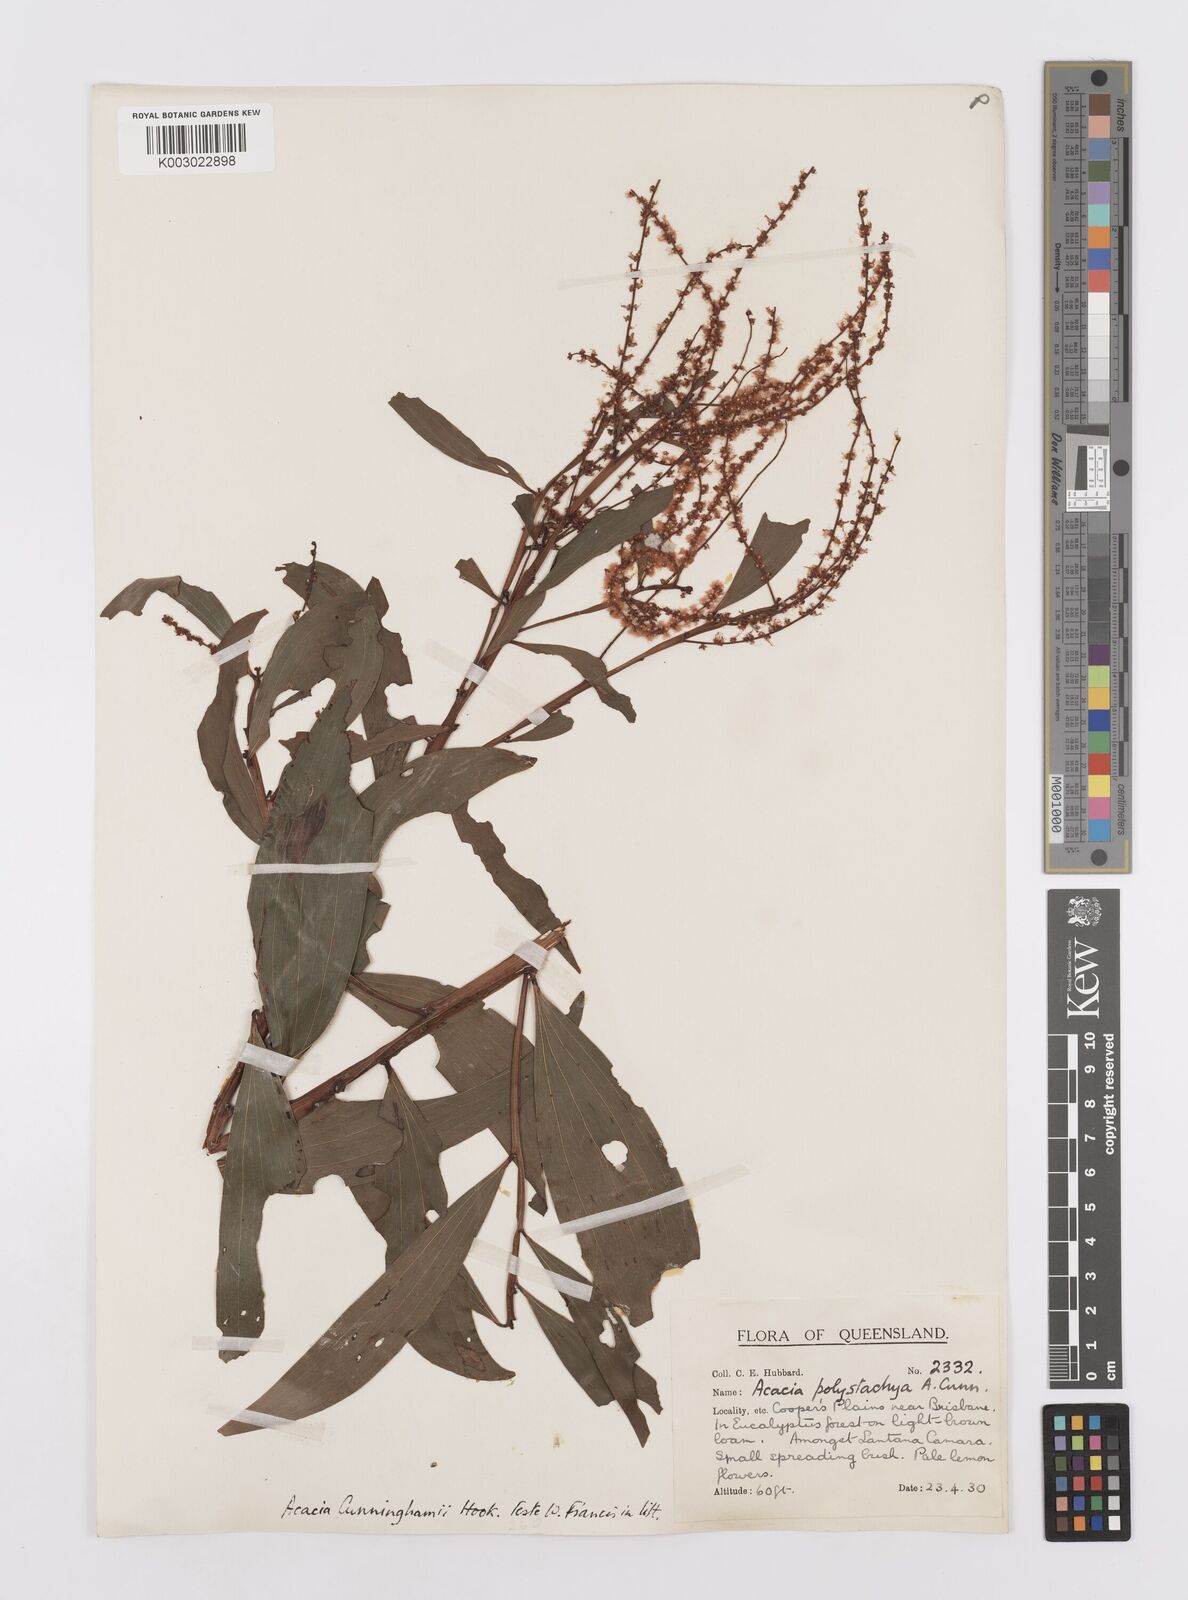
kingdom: Plantae
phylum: Tracheophyta
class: Magnoliopsida
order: Fabales
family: Fabaceae
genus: Acacia
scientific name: Acacia longispicata
